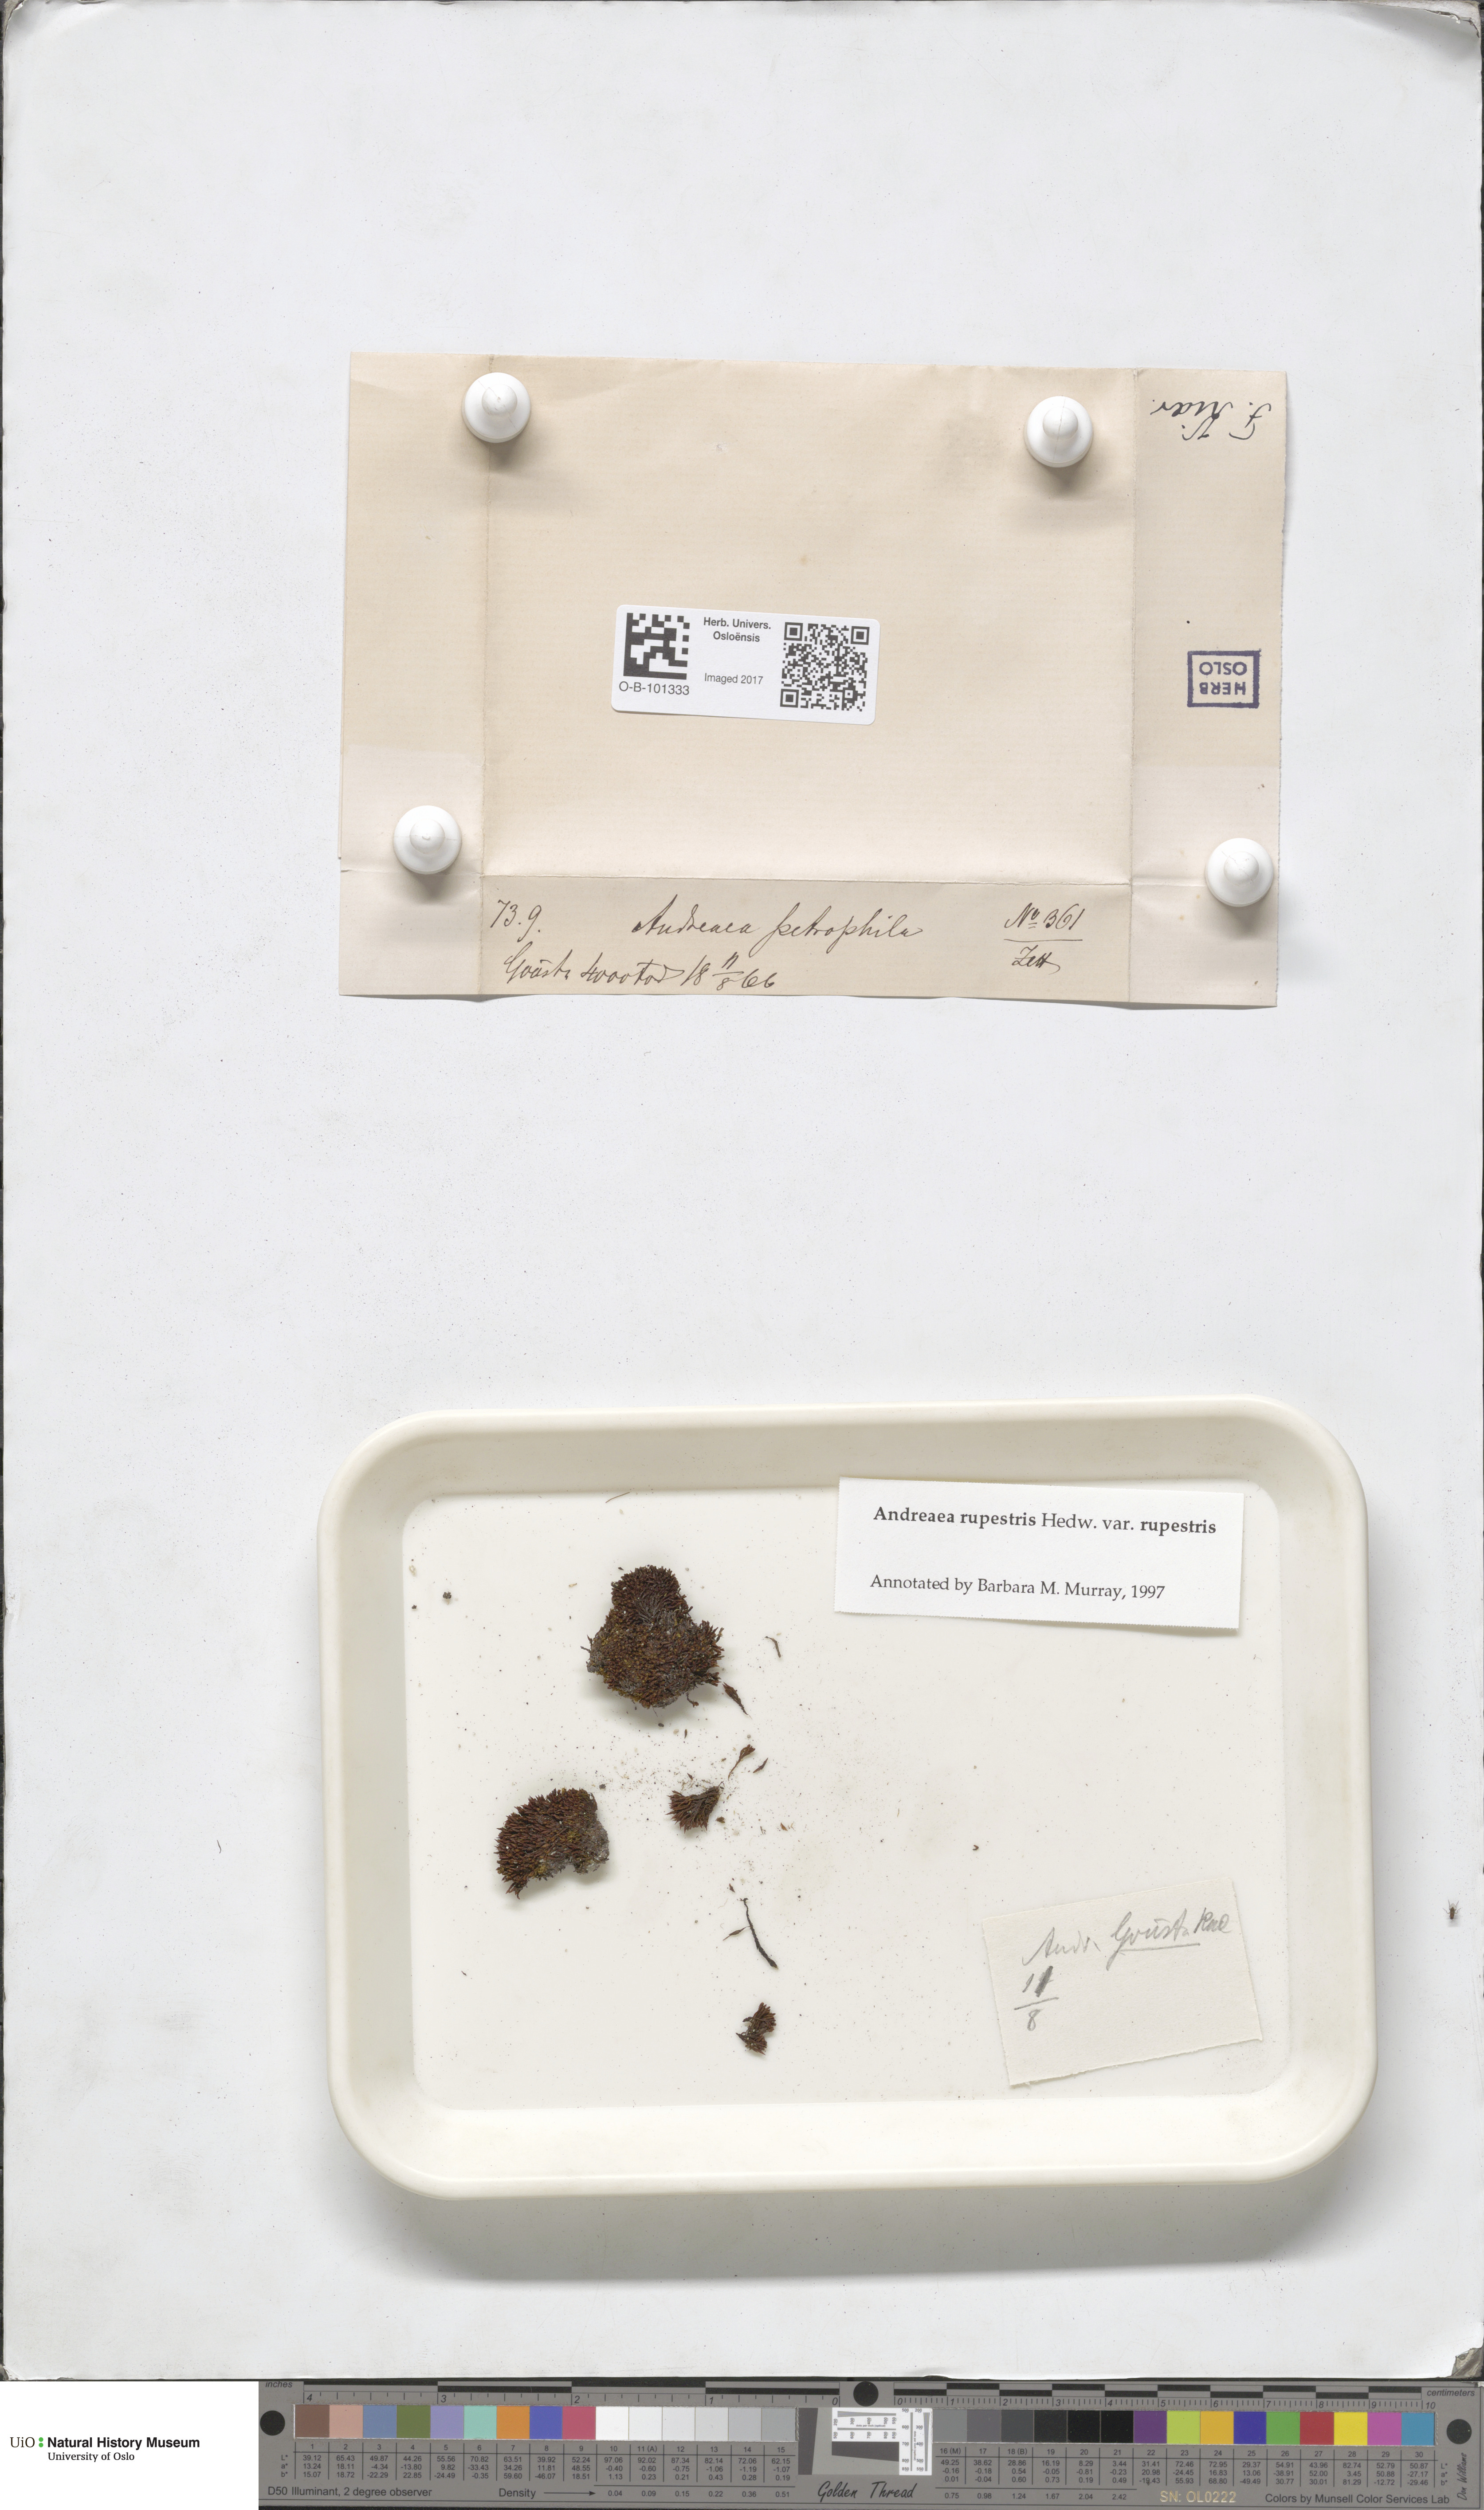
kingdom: Plantae
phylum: Bryophyta
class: Andreaeopsida
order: Andreaeales
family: Andreaeaceae
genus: Andreaea
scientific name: Andreaea rupestris
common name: Black rock moss
